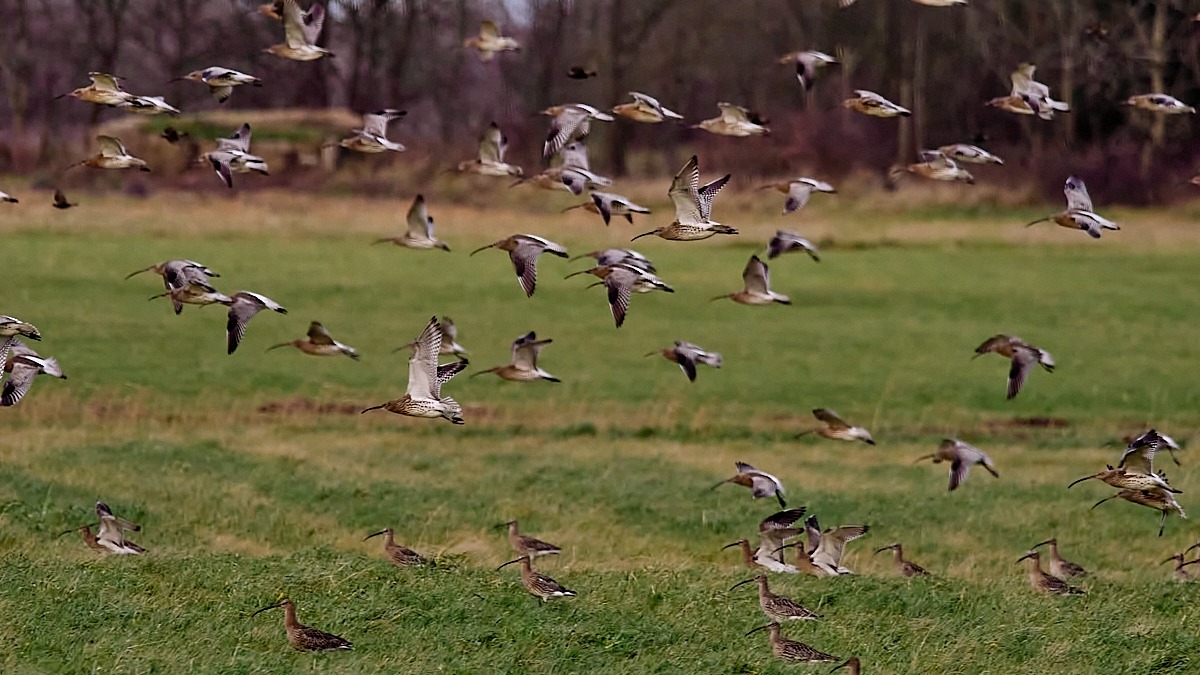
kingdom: Animalia
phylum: Chordata
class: Aves
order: Charadriiformes
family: Scolopacidae
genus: Numenius
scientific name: Numenius arquata
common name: Storspove
